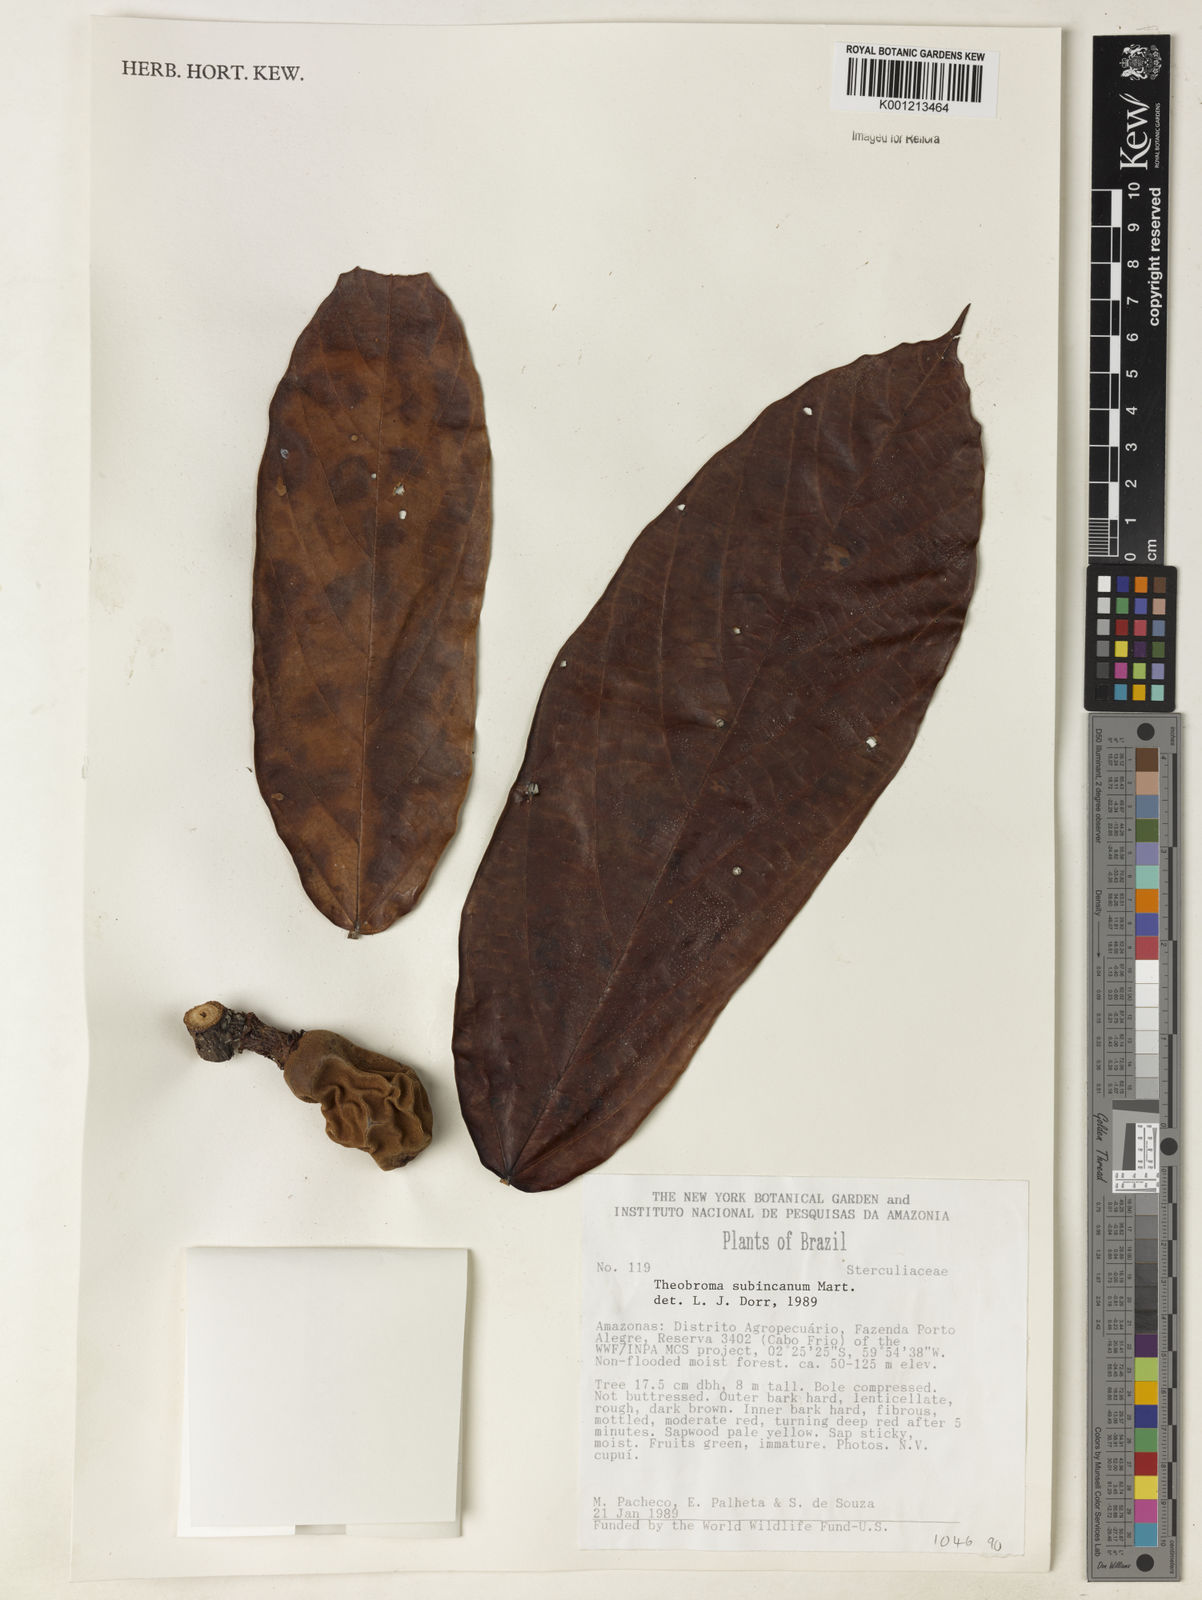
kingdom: Plantae
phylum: Tracheophyta
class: Magnoliopsida
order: Malvales
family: Malvaceae
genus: Theobroma
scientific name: Theobroma subincanum
